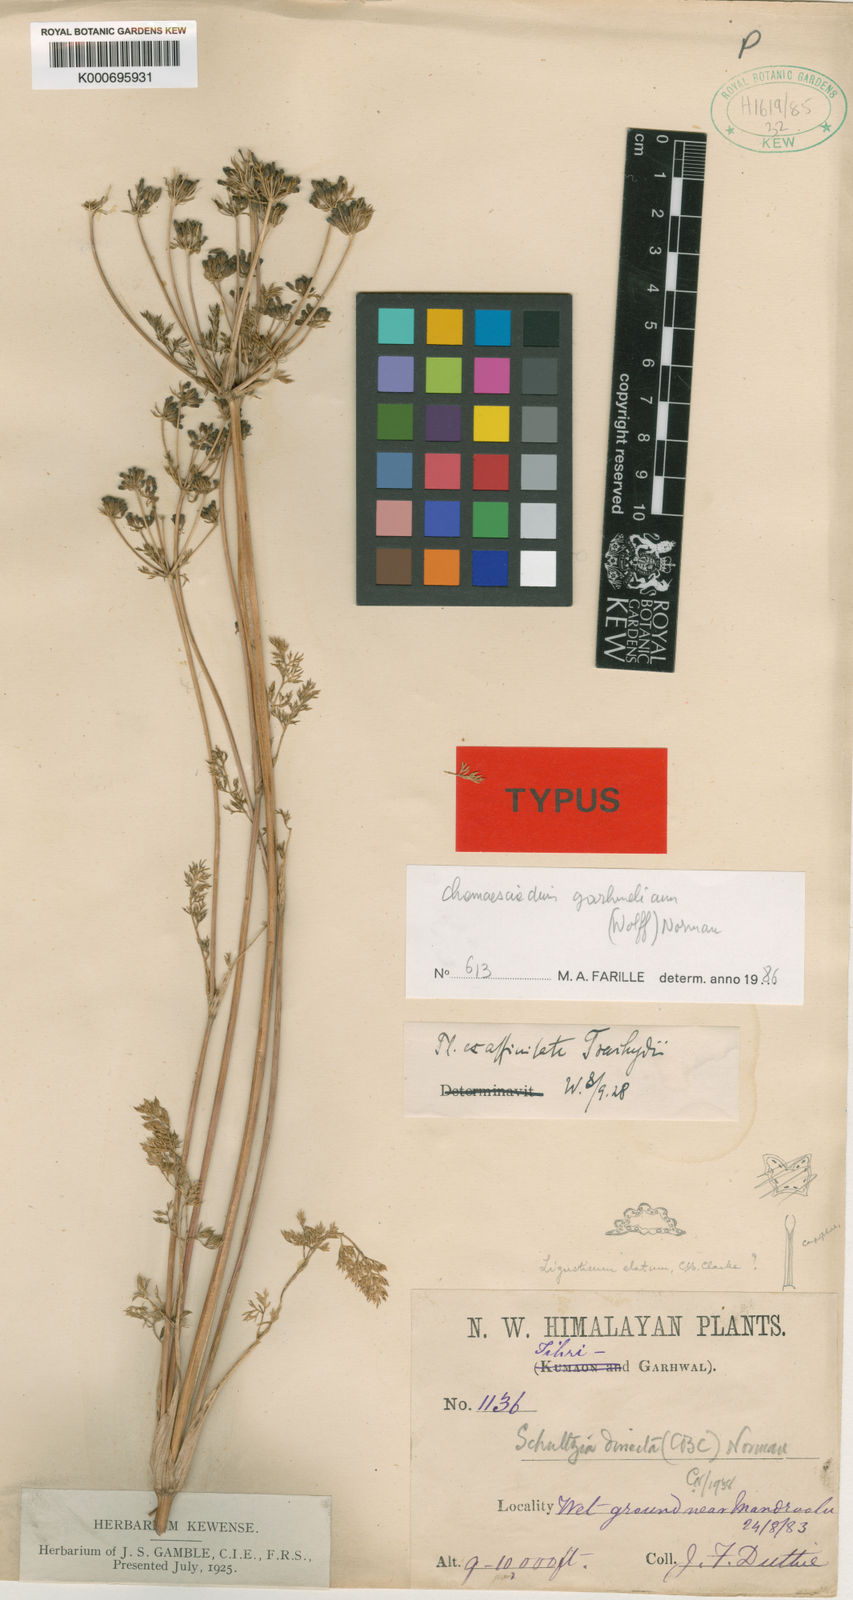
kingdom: Plantae
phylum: Tracheophyta
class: Magnoliopsida
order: Apiales
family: Apiaceae
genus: Kedarnatha
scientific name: Kedarnatha garhwalica
